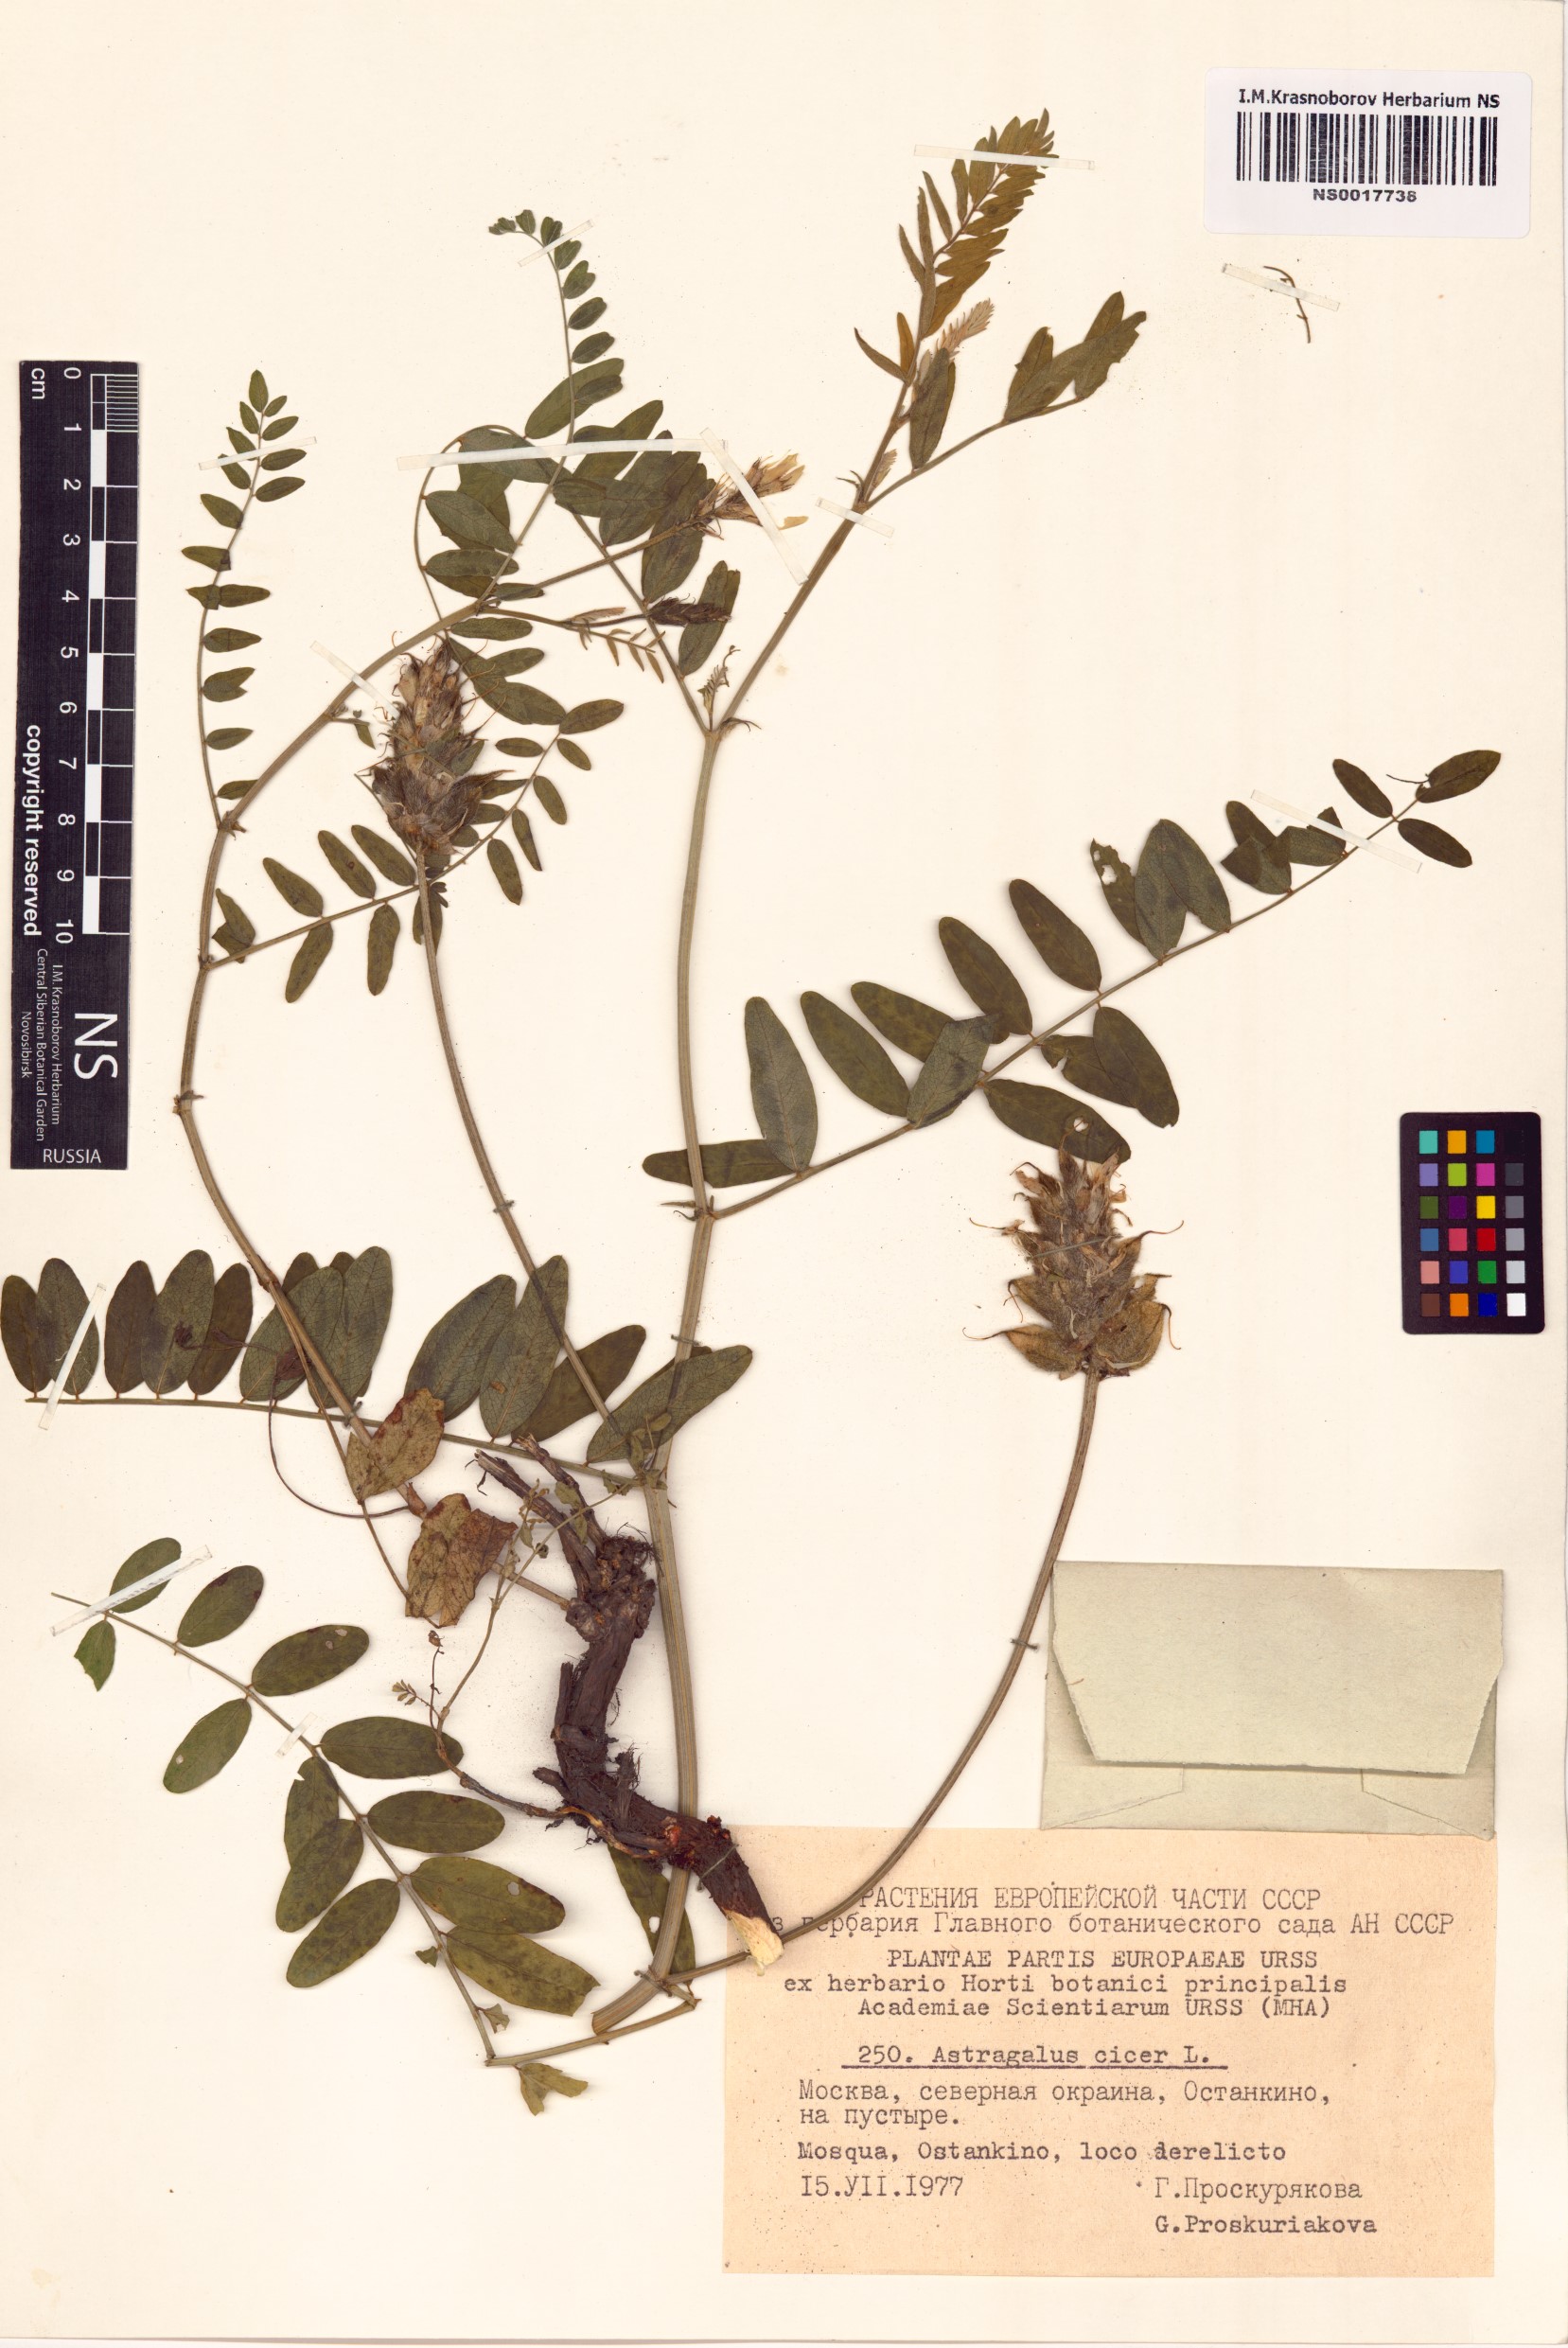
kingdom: Plantae
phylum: Tracheophyta
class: Magnoliopsida
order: Fabales
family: Fabaceae
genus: Astragalus
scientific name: Astragalus cicer
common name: Chick-pea milk-vetch
